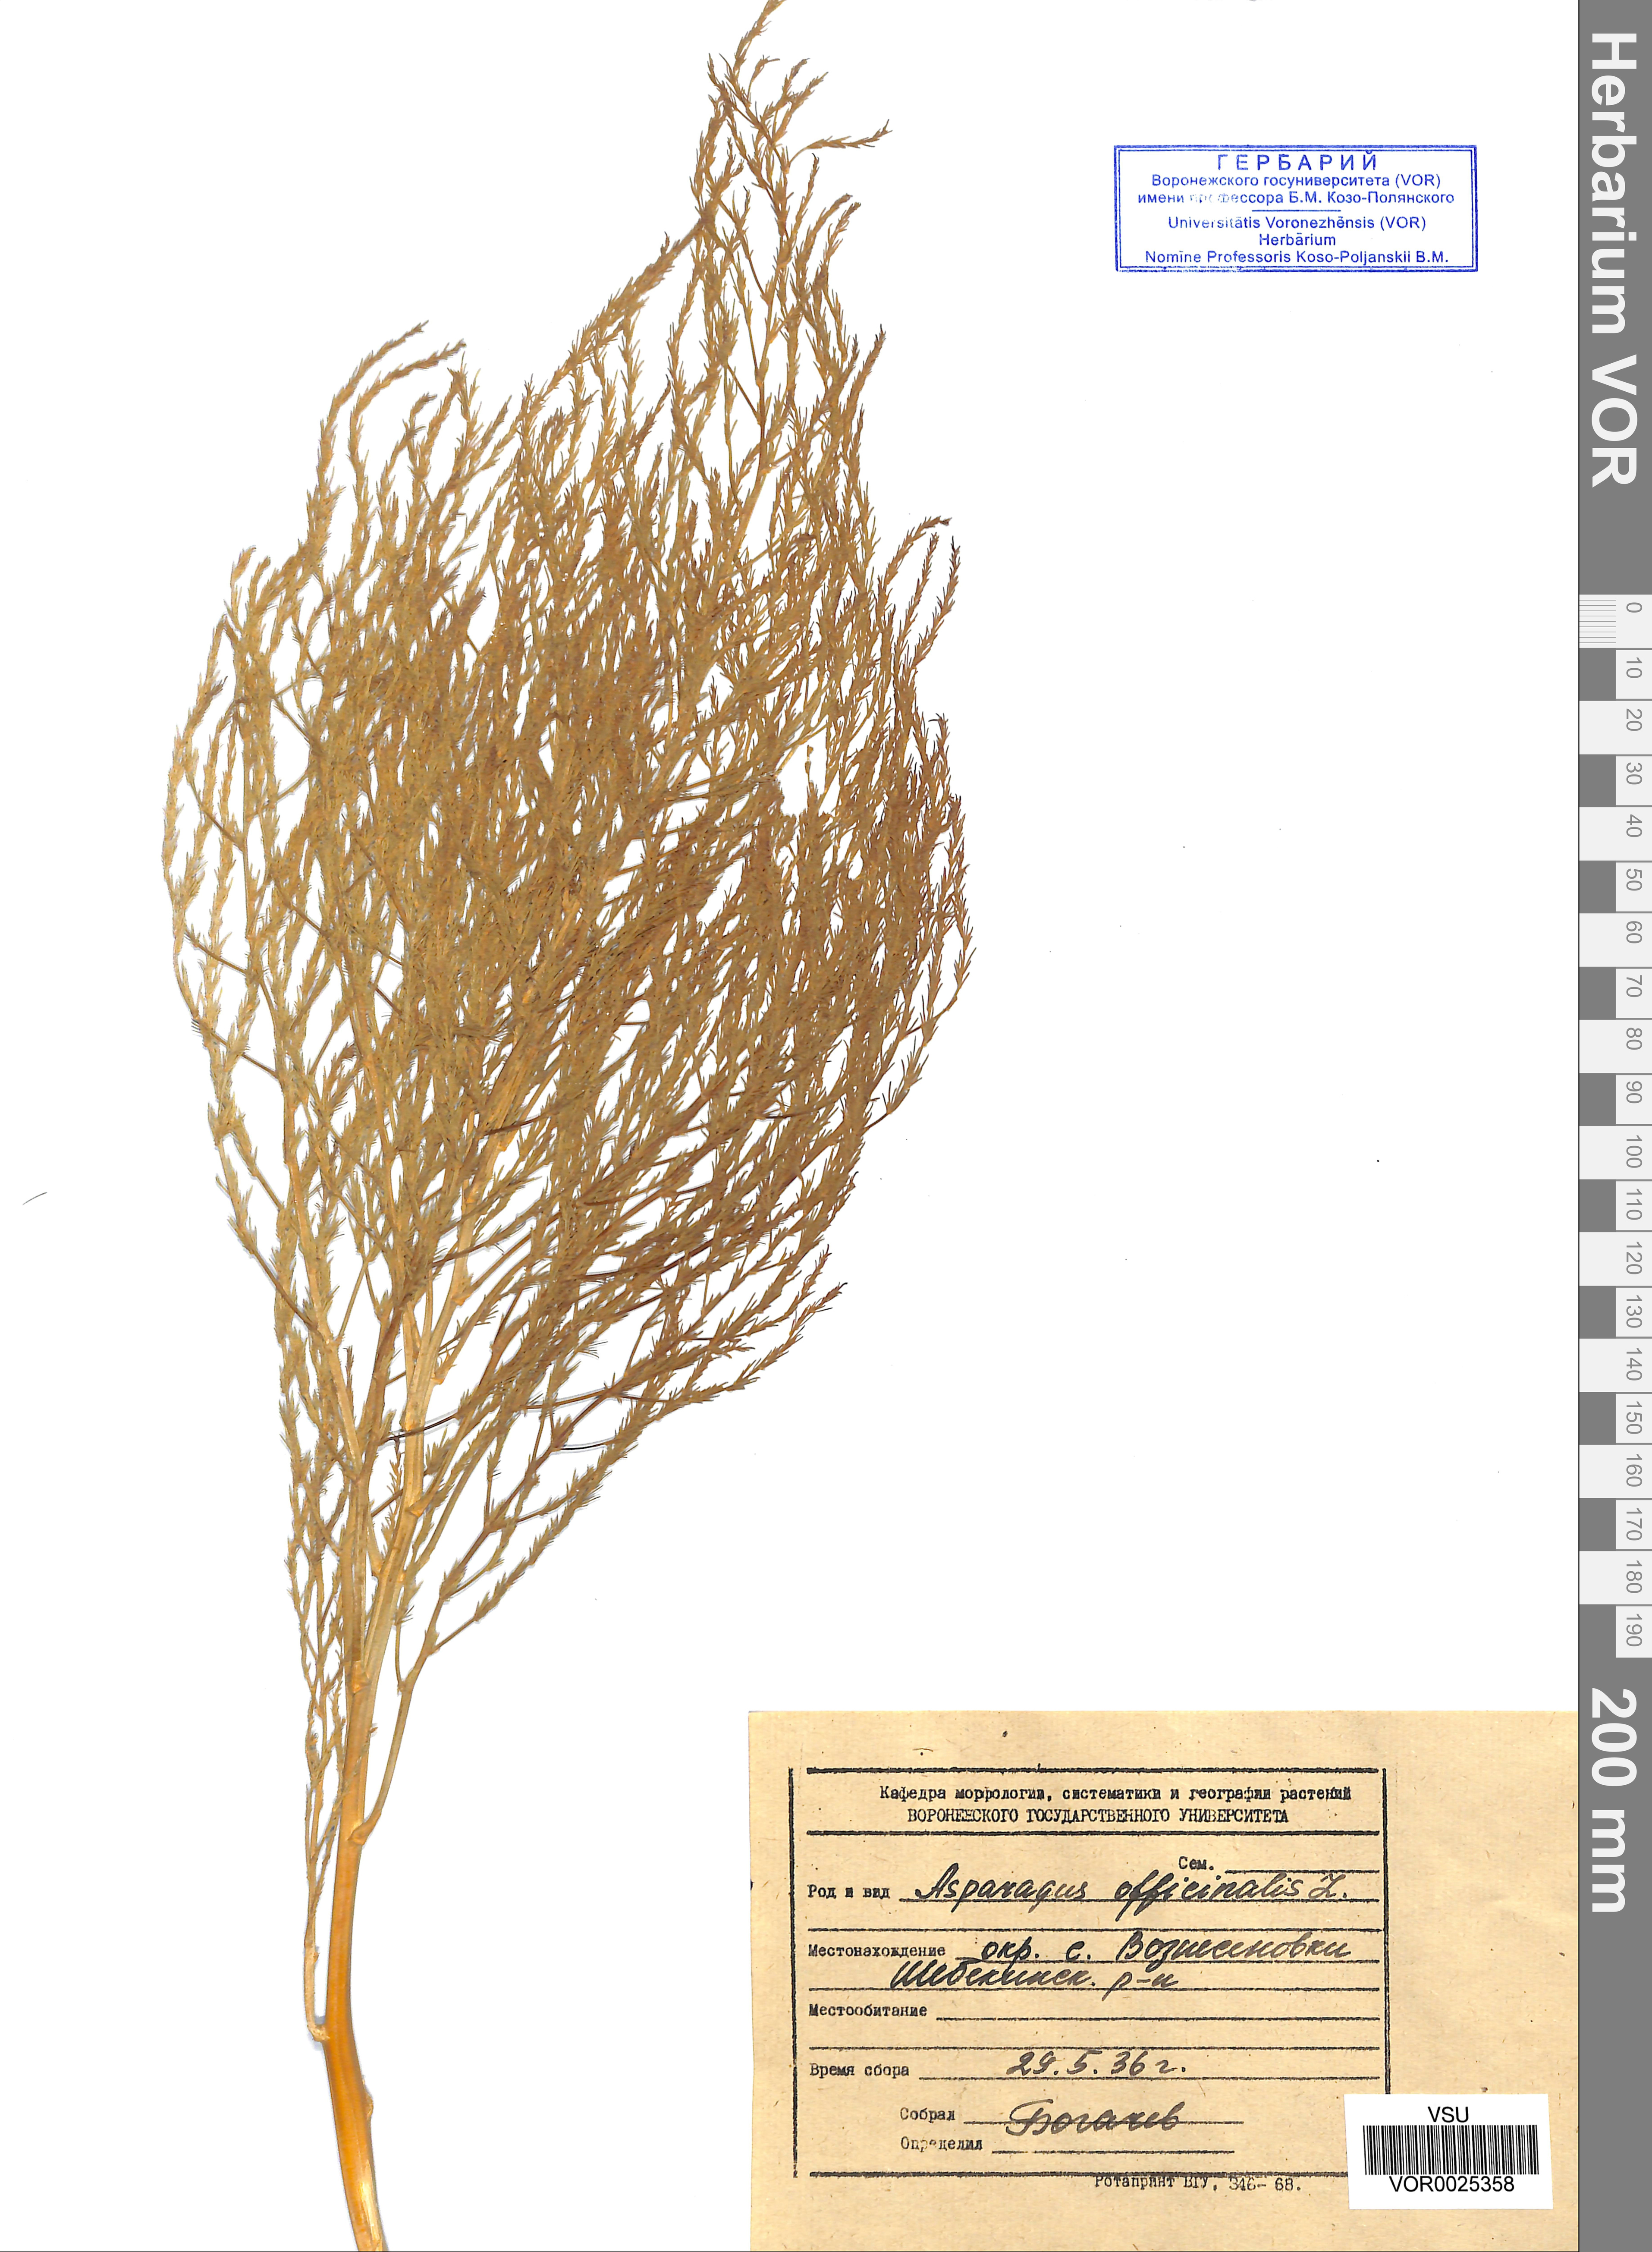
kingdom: Plantae
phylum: Tracheophyta
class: Liliopsida
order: Asparagales
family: Asparagaceae
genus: Asparagus
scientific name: Asparagus officinalis
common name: Garden asparagus
